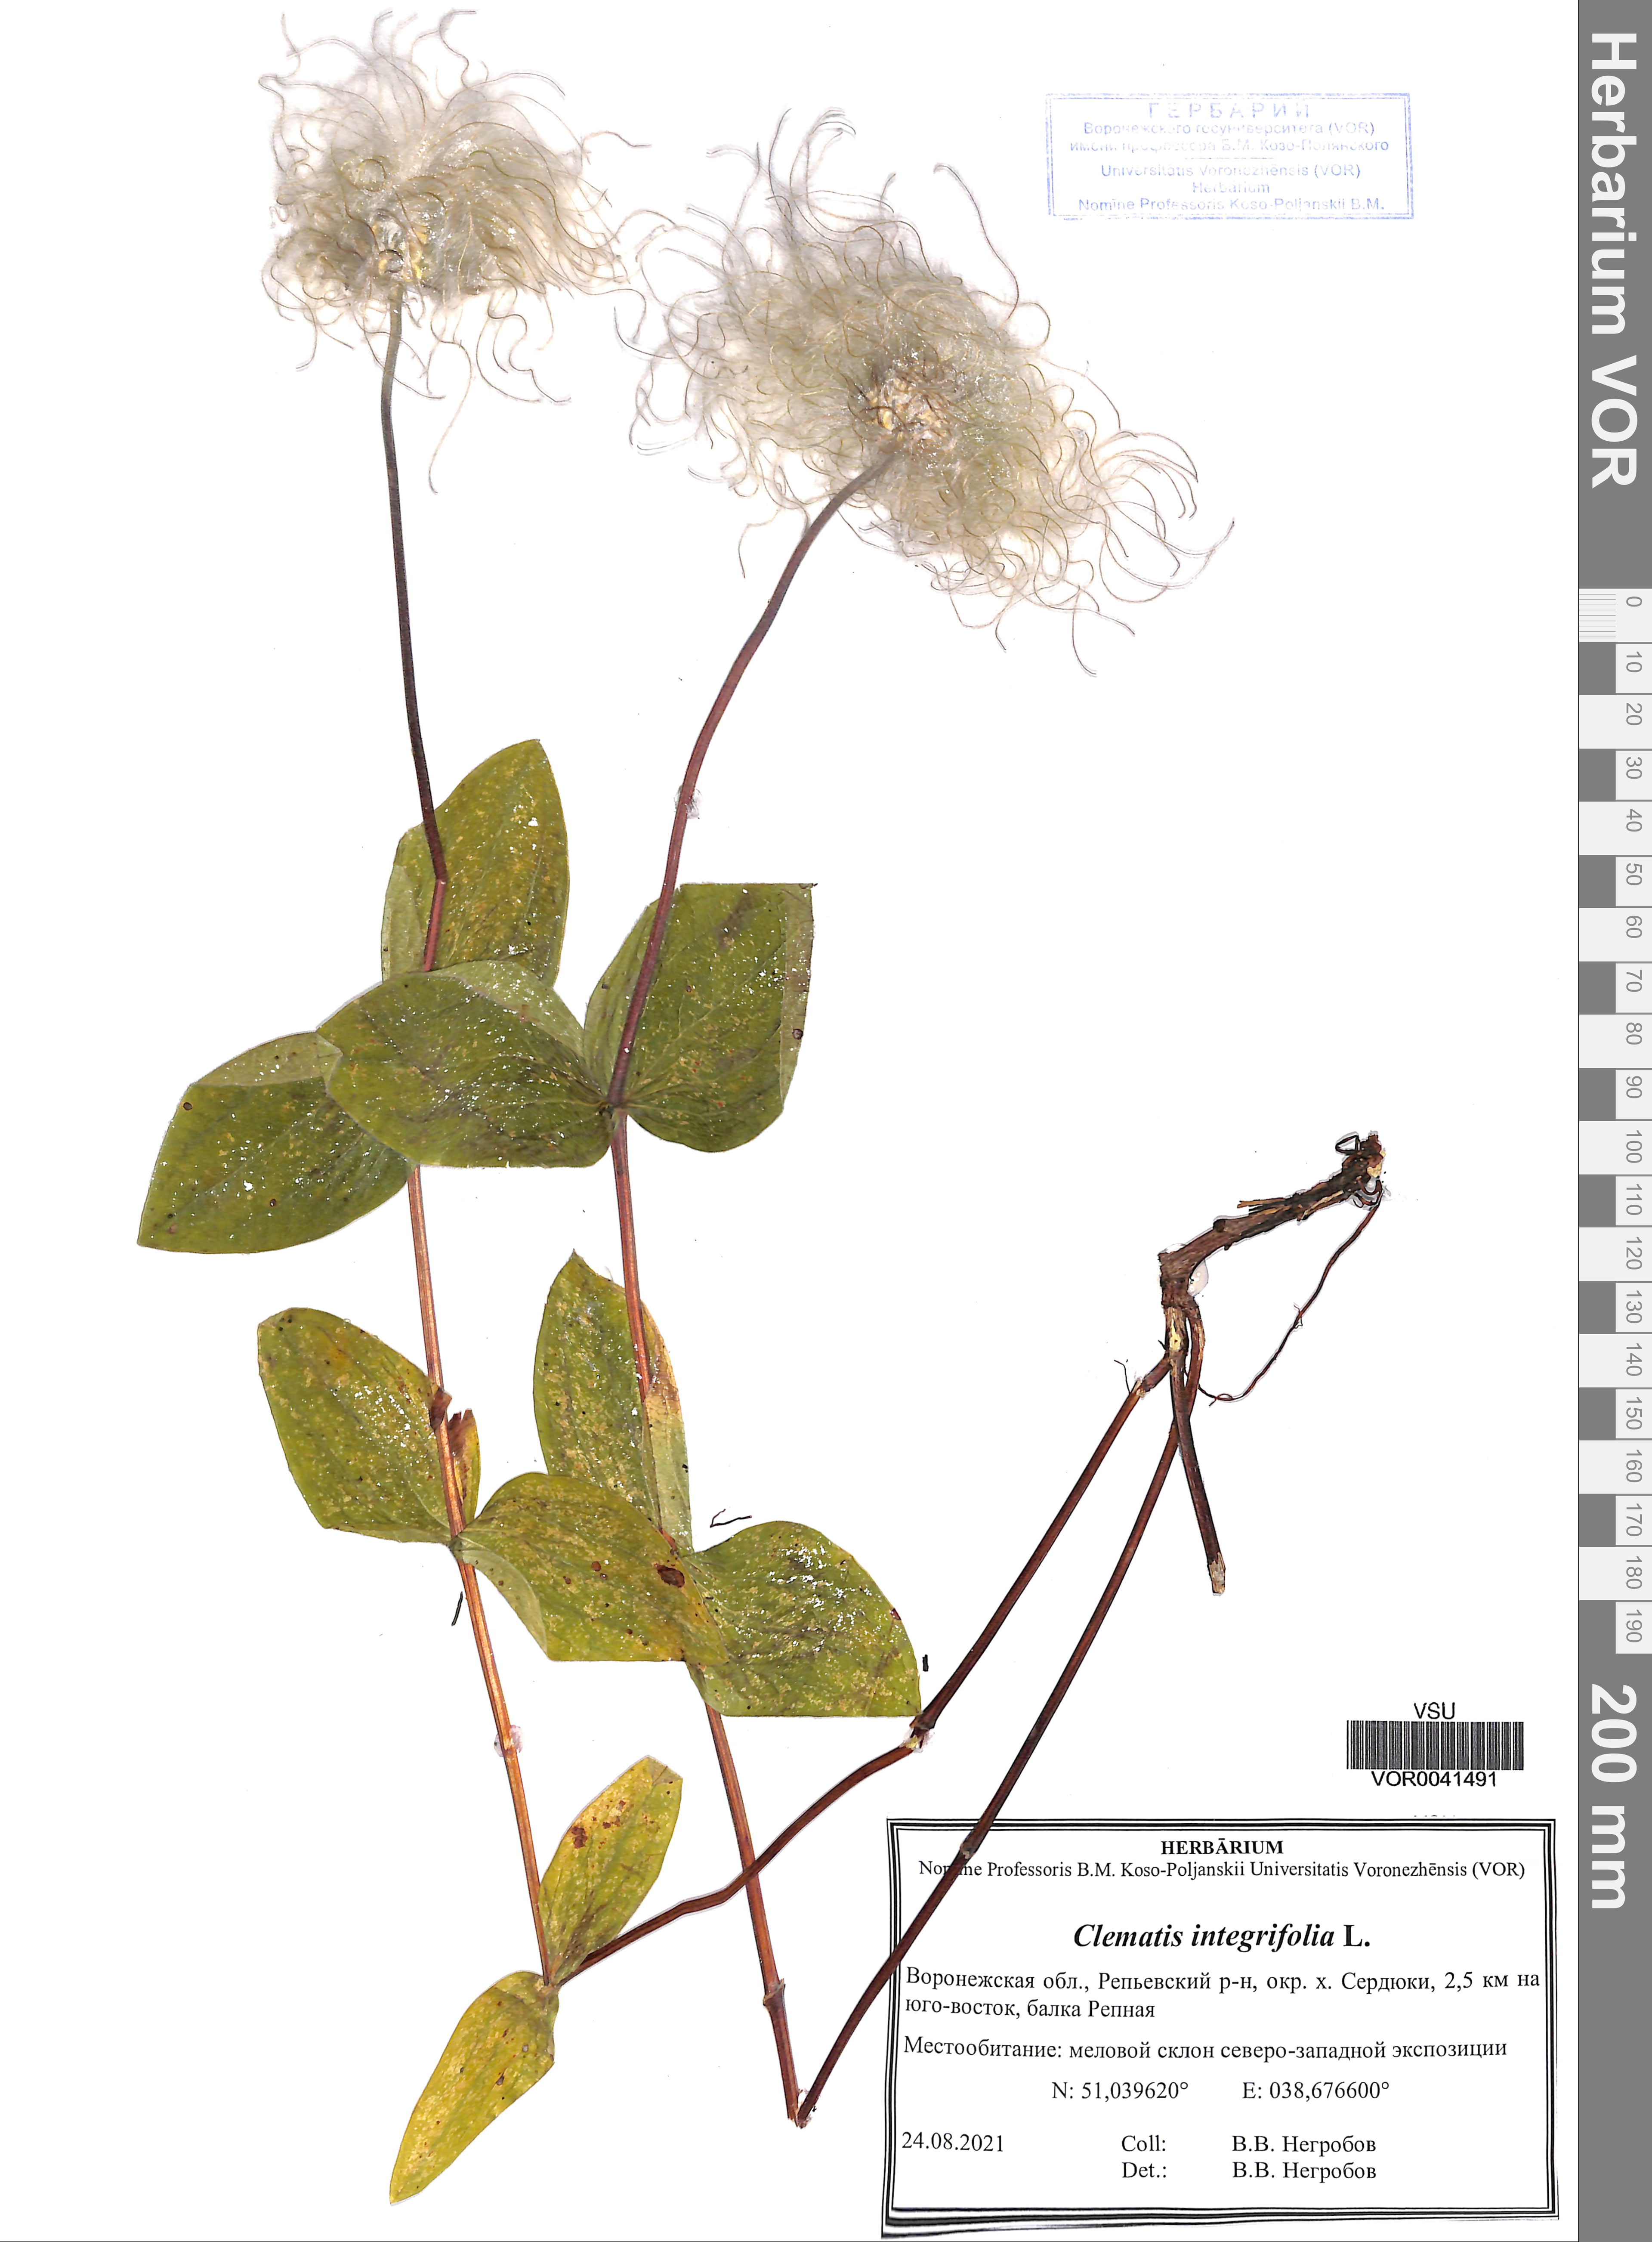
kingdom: Plantae
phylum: Tracheophyta
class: Magnoliopsida
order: Ranunculales
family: Ranunculaceae
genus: Clematis
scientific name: Clematis integrifolia
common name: Solitary clematis
